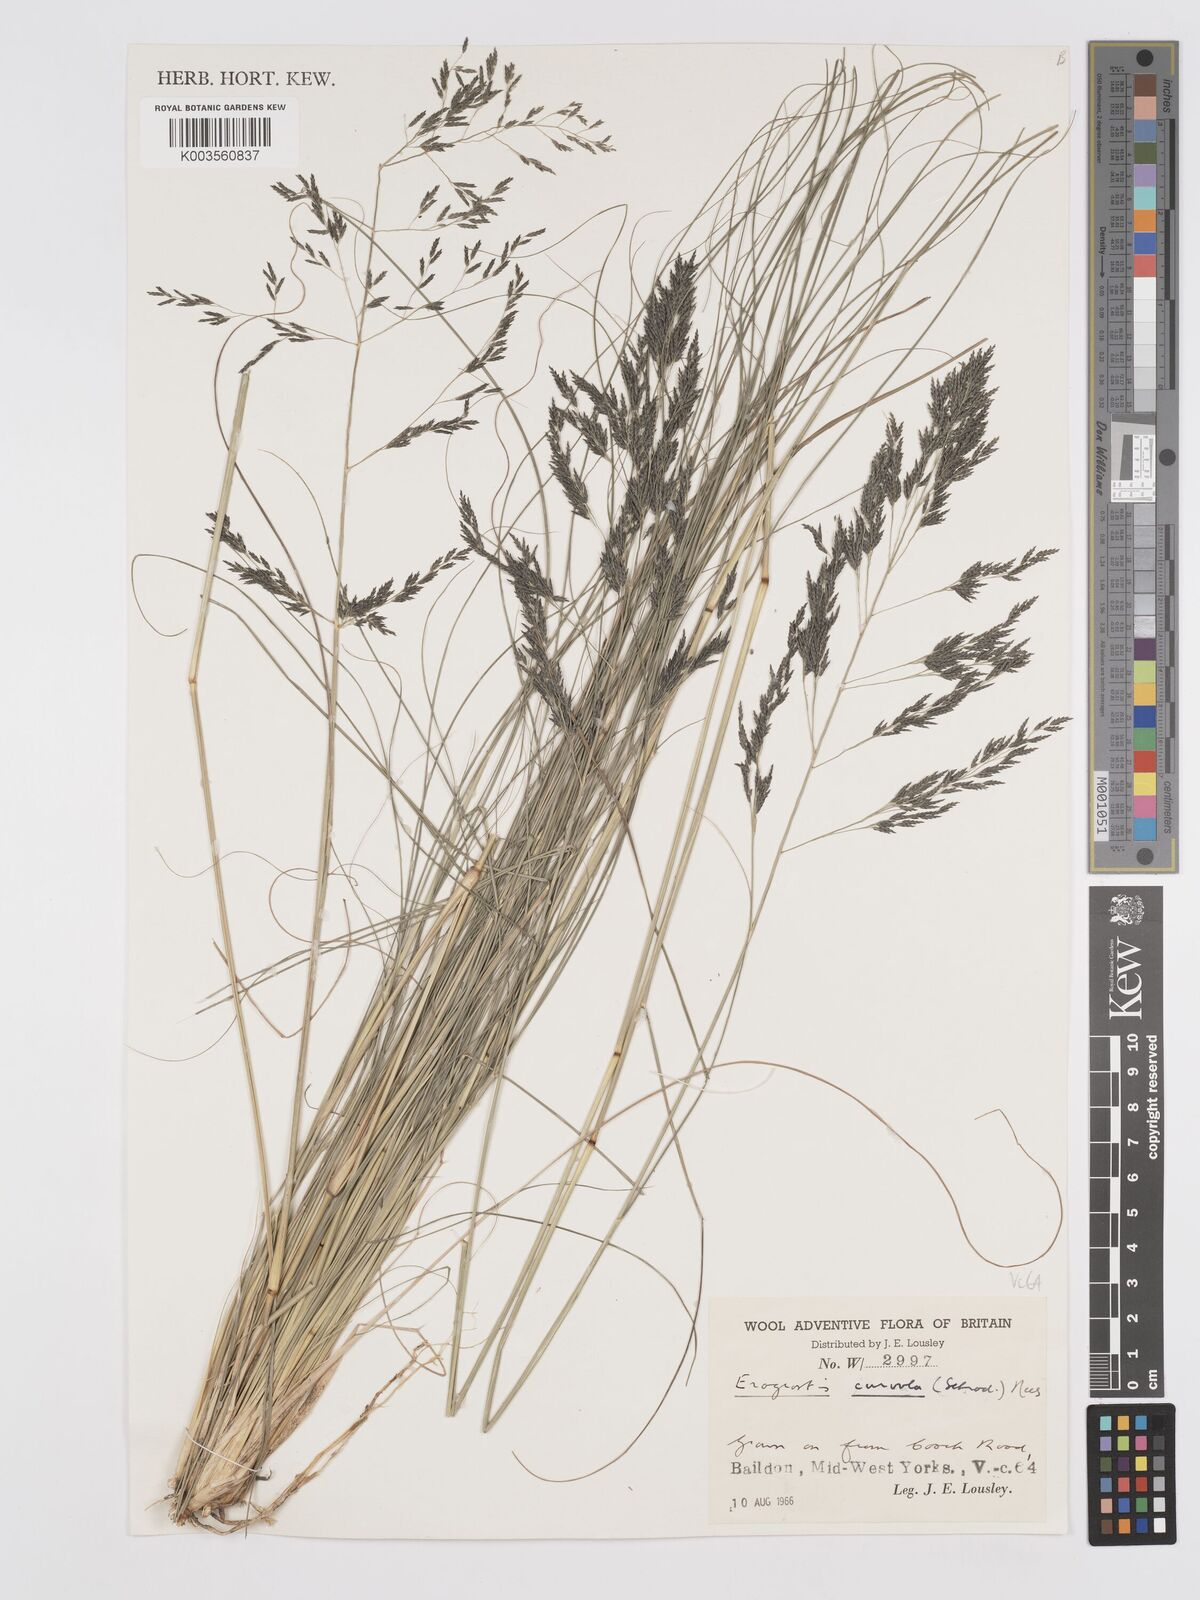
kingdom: Plantae
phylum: Tracheophyta
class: Liliopsida
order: Poales
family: Poaceae
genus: Eragrostis
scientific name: Eragrostis curvula
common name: African love-grass
